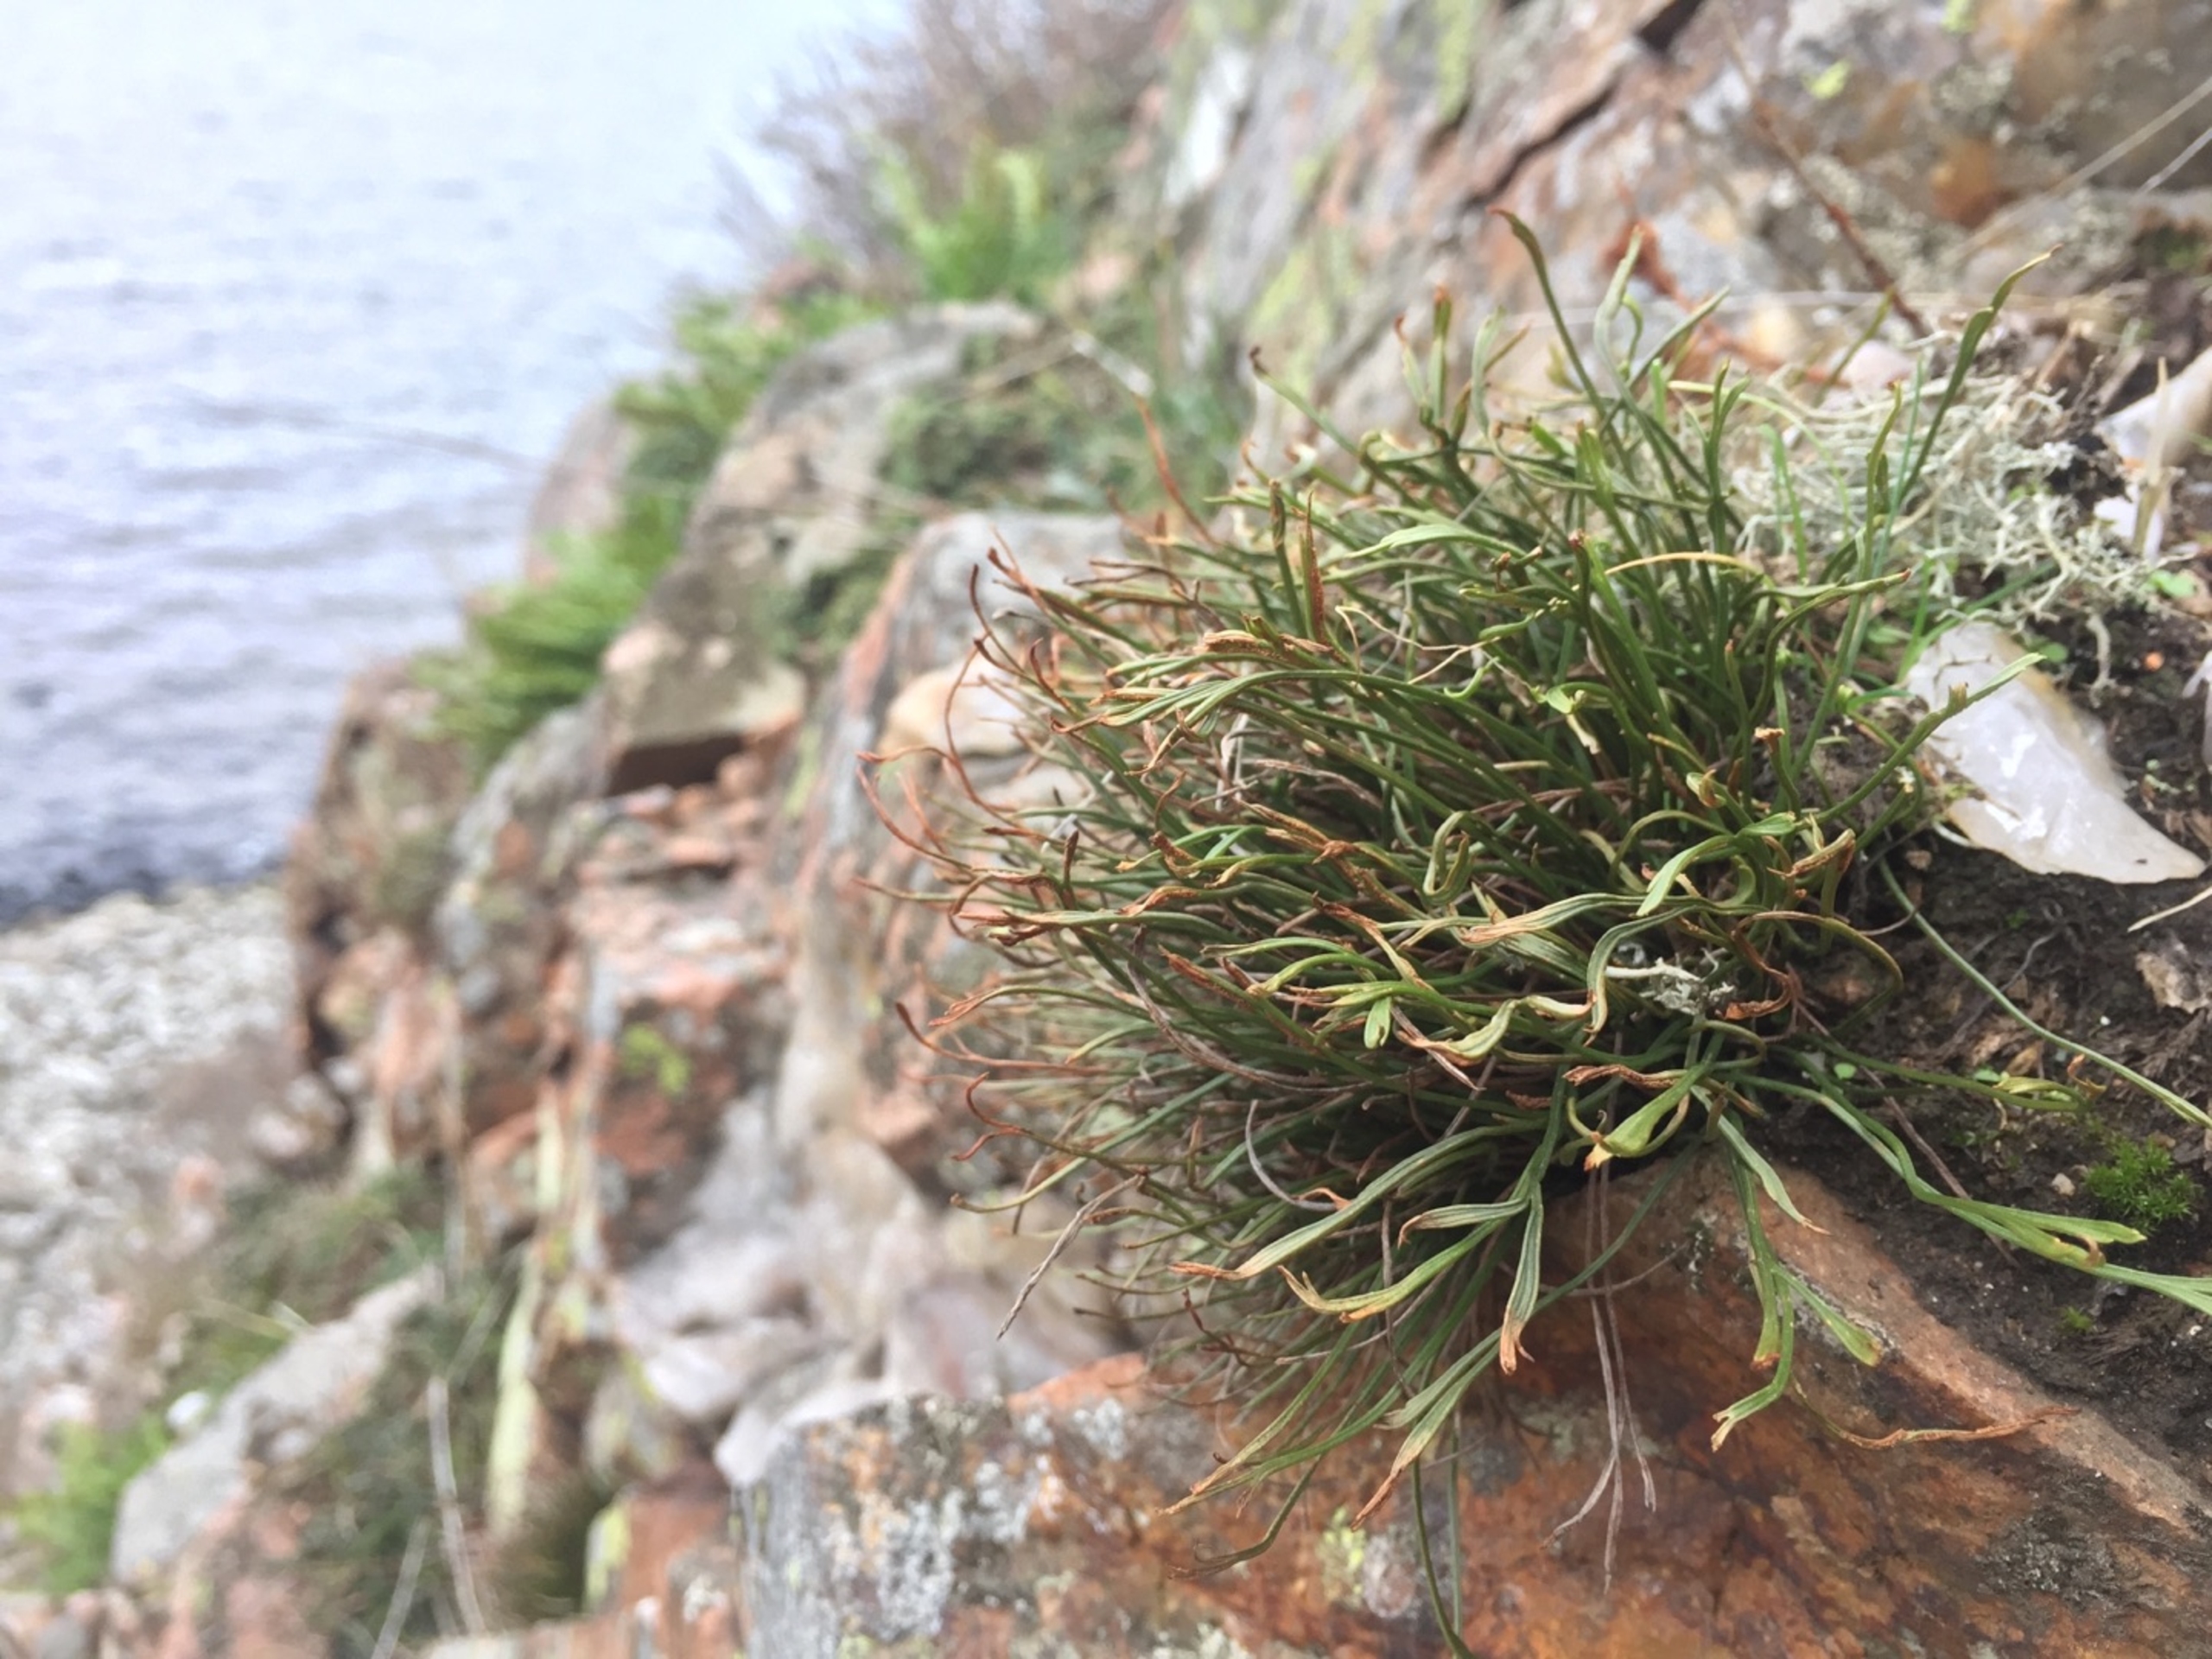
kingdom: Plantae
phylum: Tracheophyta
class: Polypodiopsida
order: Polypodiales
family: Aspleniaceae
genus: Asplenium
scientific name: Asplenium septentrionale
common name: Nordisk radeløv
